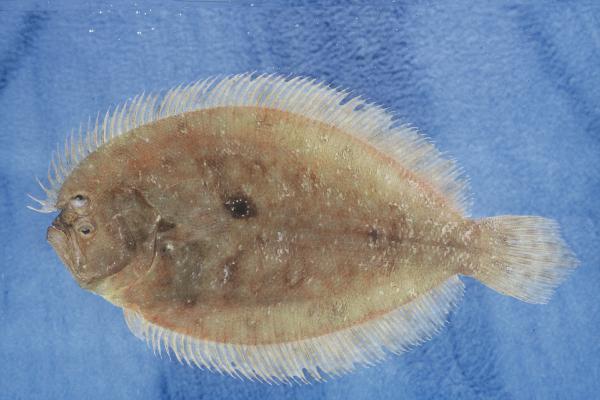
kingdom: Animalia
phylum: Chordata
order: Pleuronectiformes
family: Paralichthyidae
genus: Pseudorhombus
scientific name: Pseudorhombus arsius
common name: Largetooth flounder
